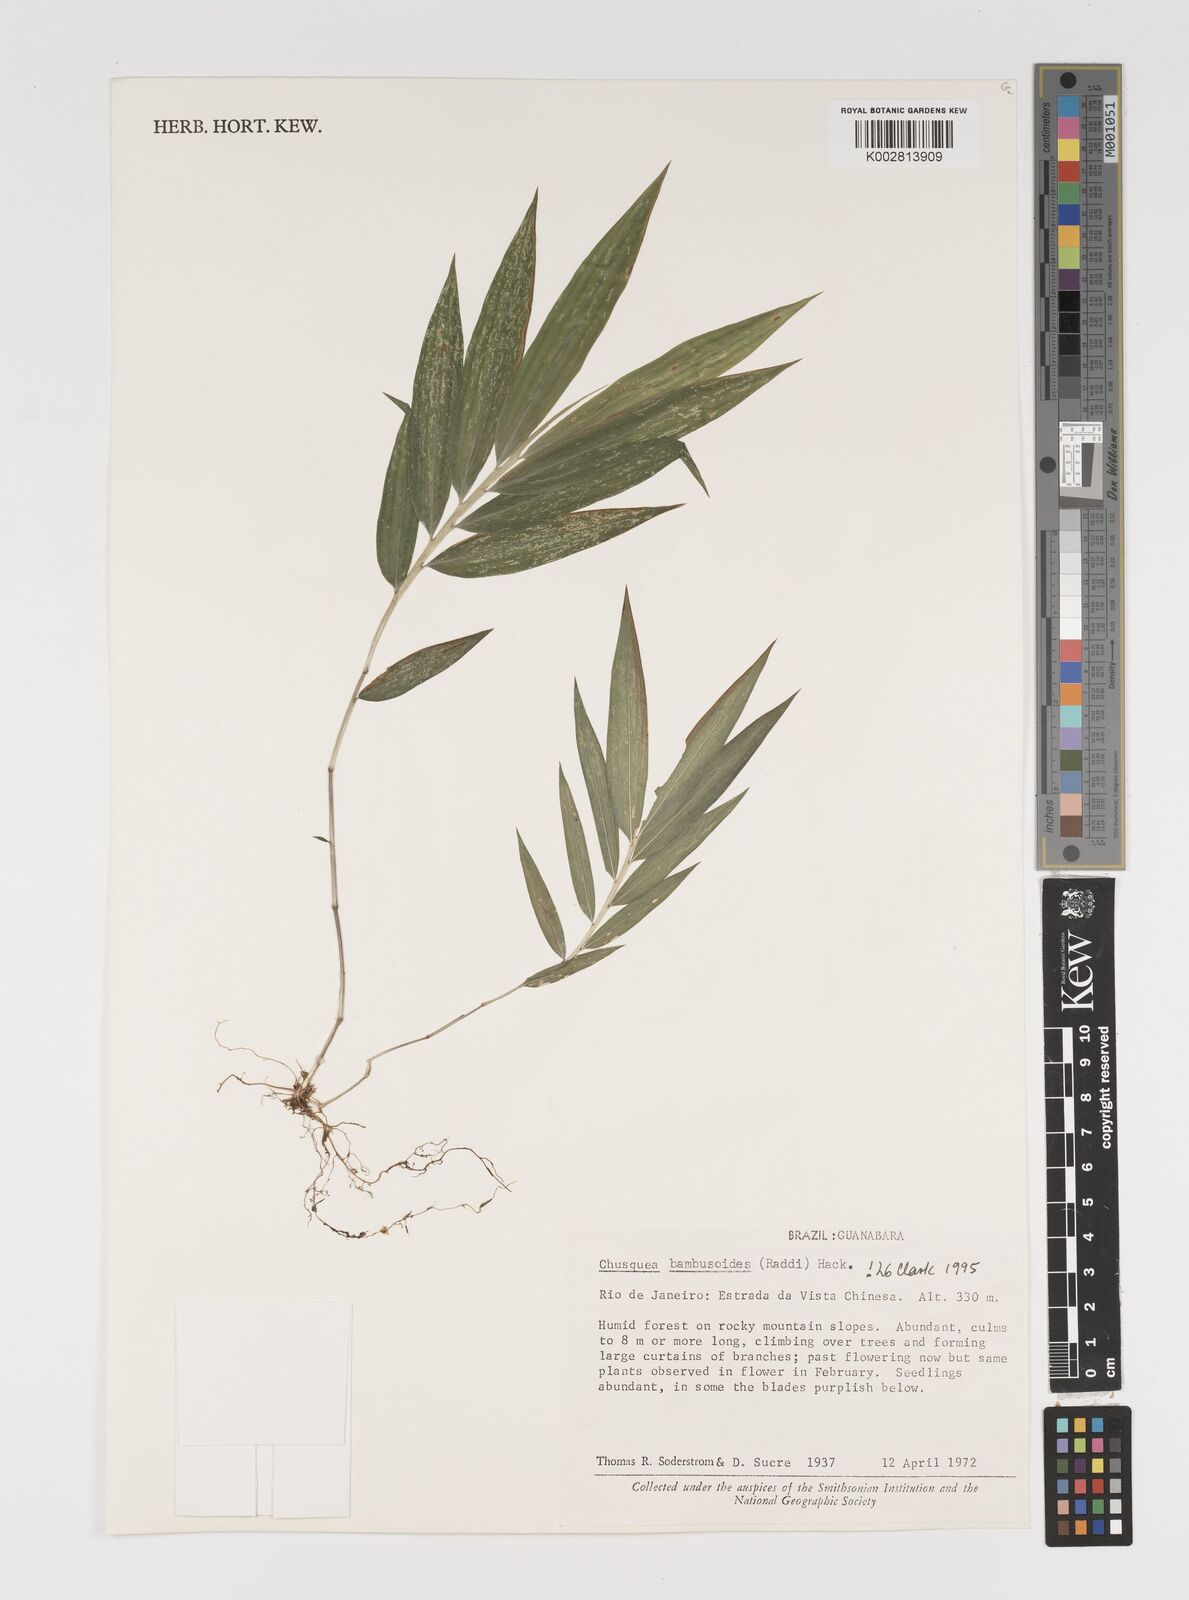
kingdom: Plantae
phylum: Tracheophyta
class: Liliopsida
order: Poales
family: Poaceae
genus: Chusquea
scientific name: Chusquea bambusoides
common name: Brazil scrambling bamboo
